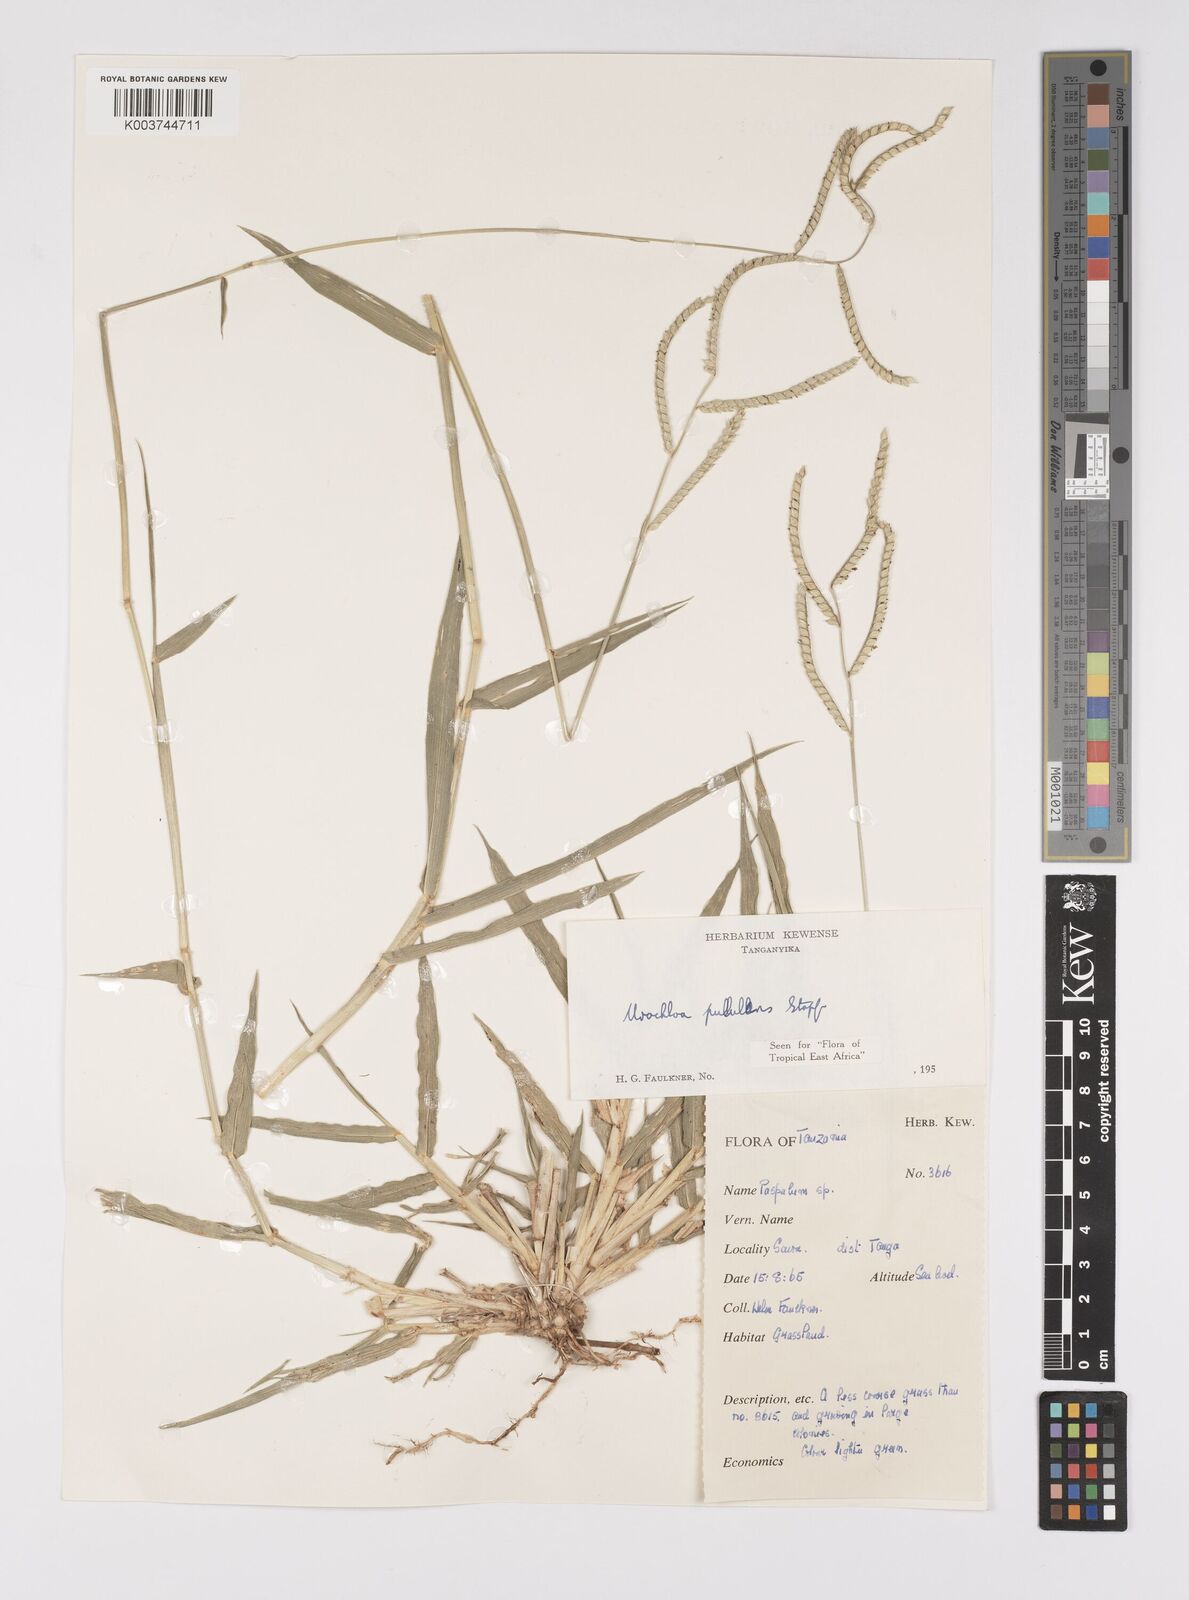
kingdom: Plantae
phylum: Tracheophyta
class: Liliopsida
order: Poales
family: Poaceae
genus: Urochloa
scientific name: Urochloa trichopus
